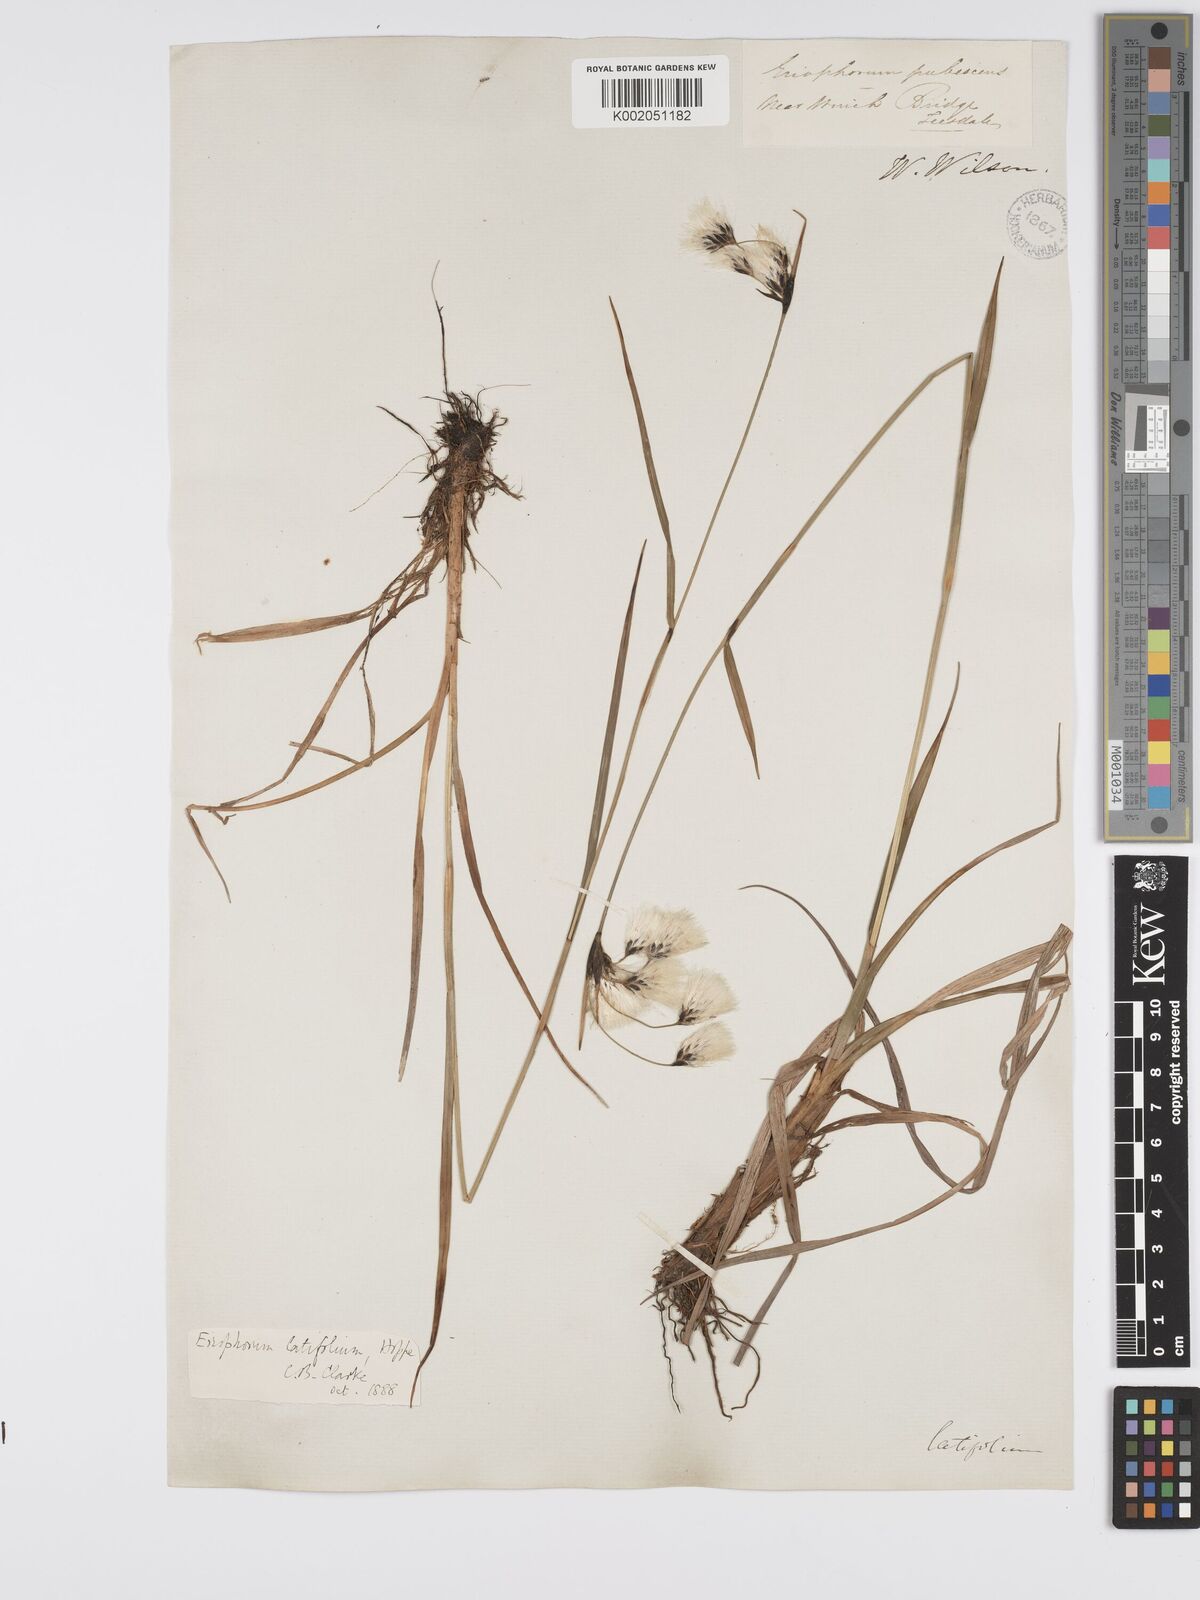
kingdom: Plantae
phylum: Tracheophyta
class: Liliopsida
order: Poales
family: Cyperaceae
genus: Eriophorum
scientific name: Eriophorum latifolium
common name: Broad-leaved cottongrass
